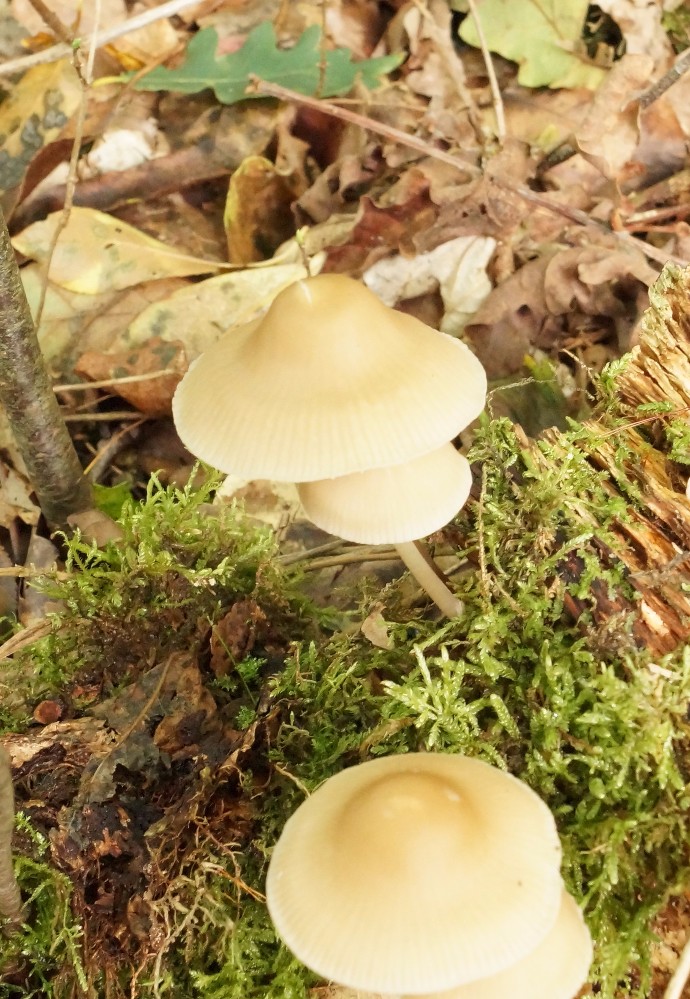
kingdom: Fungi
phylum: Basidiomycota
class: Agaricomycetes
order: Agaricales
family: Mycenaceae
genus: Mycena
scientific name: Mycena galericulata
